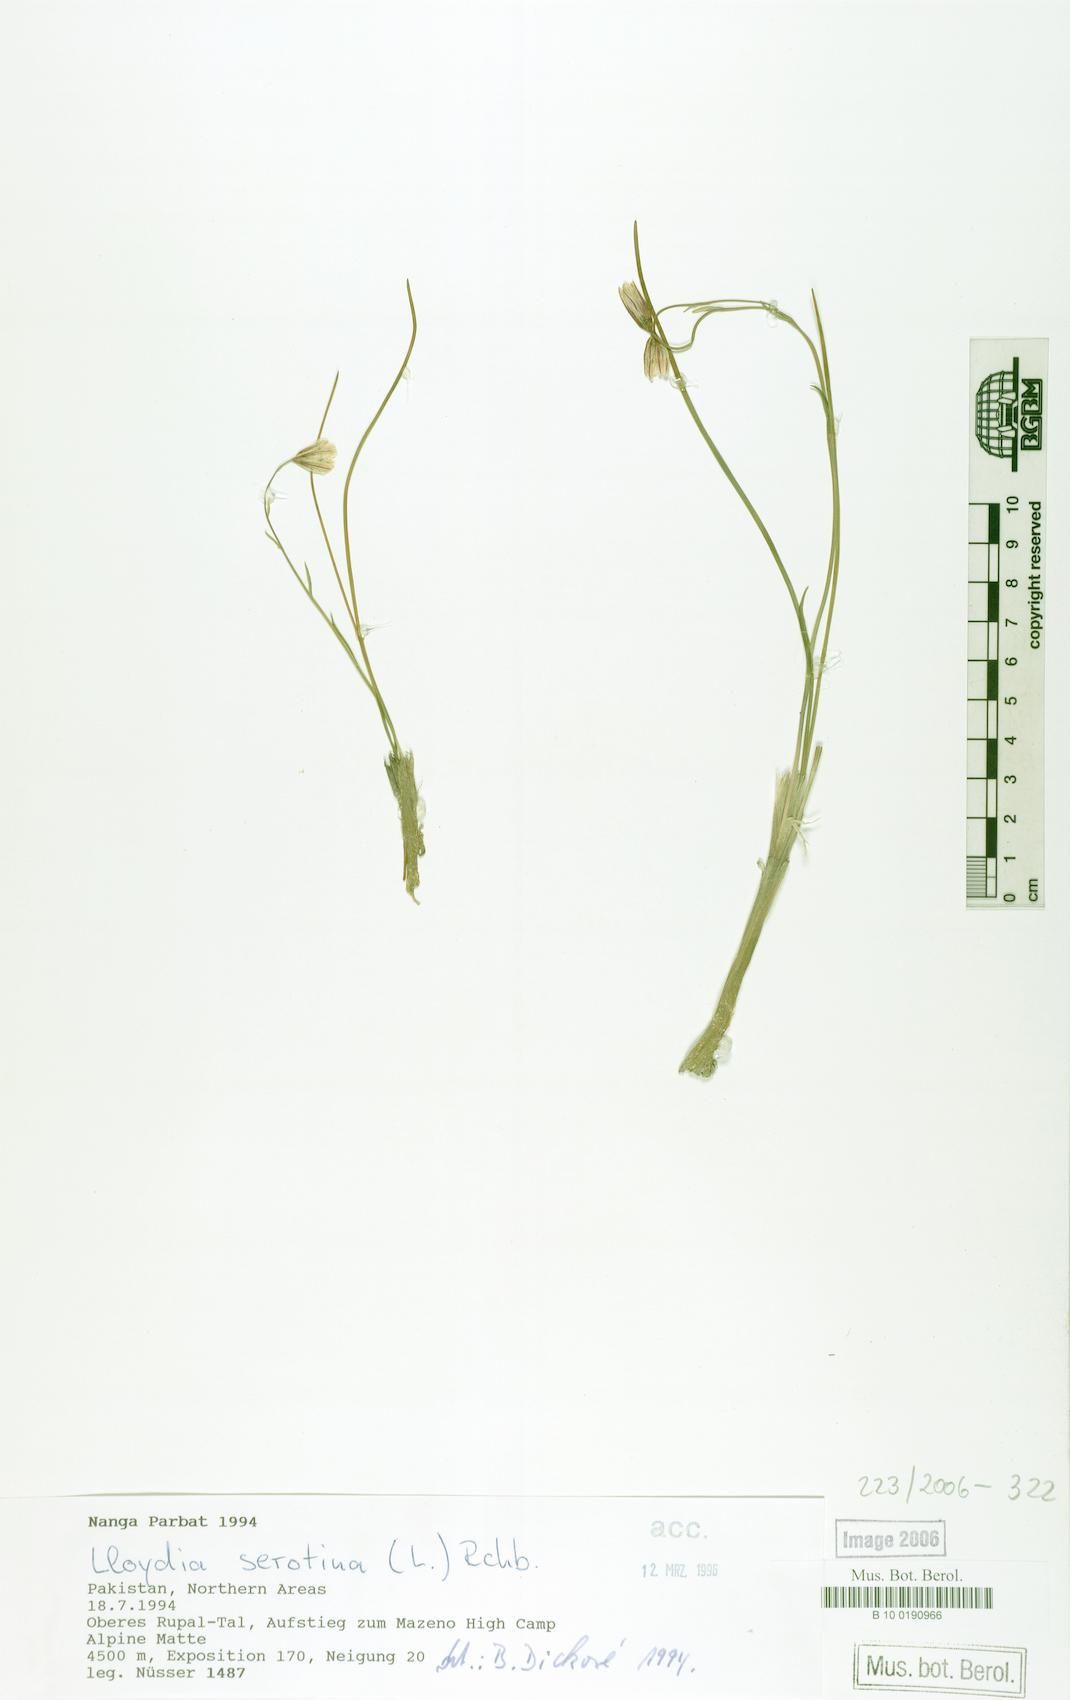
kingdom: Plantae
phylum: Tracheophyta
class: Liliopsida
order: Liliales
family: Liliaceae
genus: Gagea
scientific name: Gagea serotina
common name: Snowdon lily
